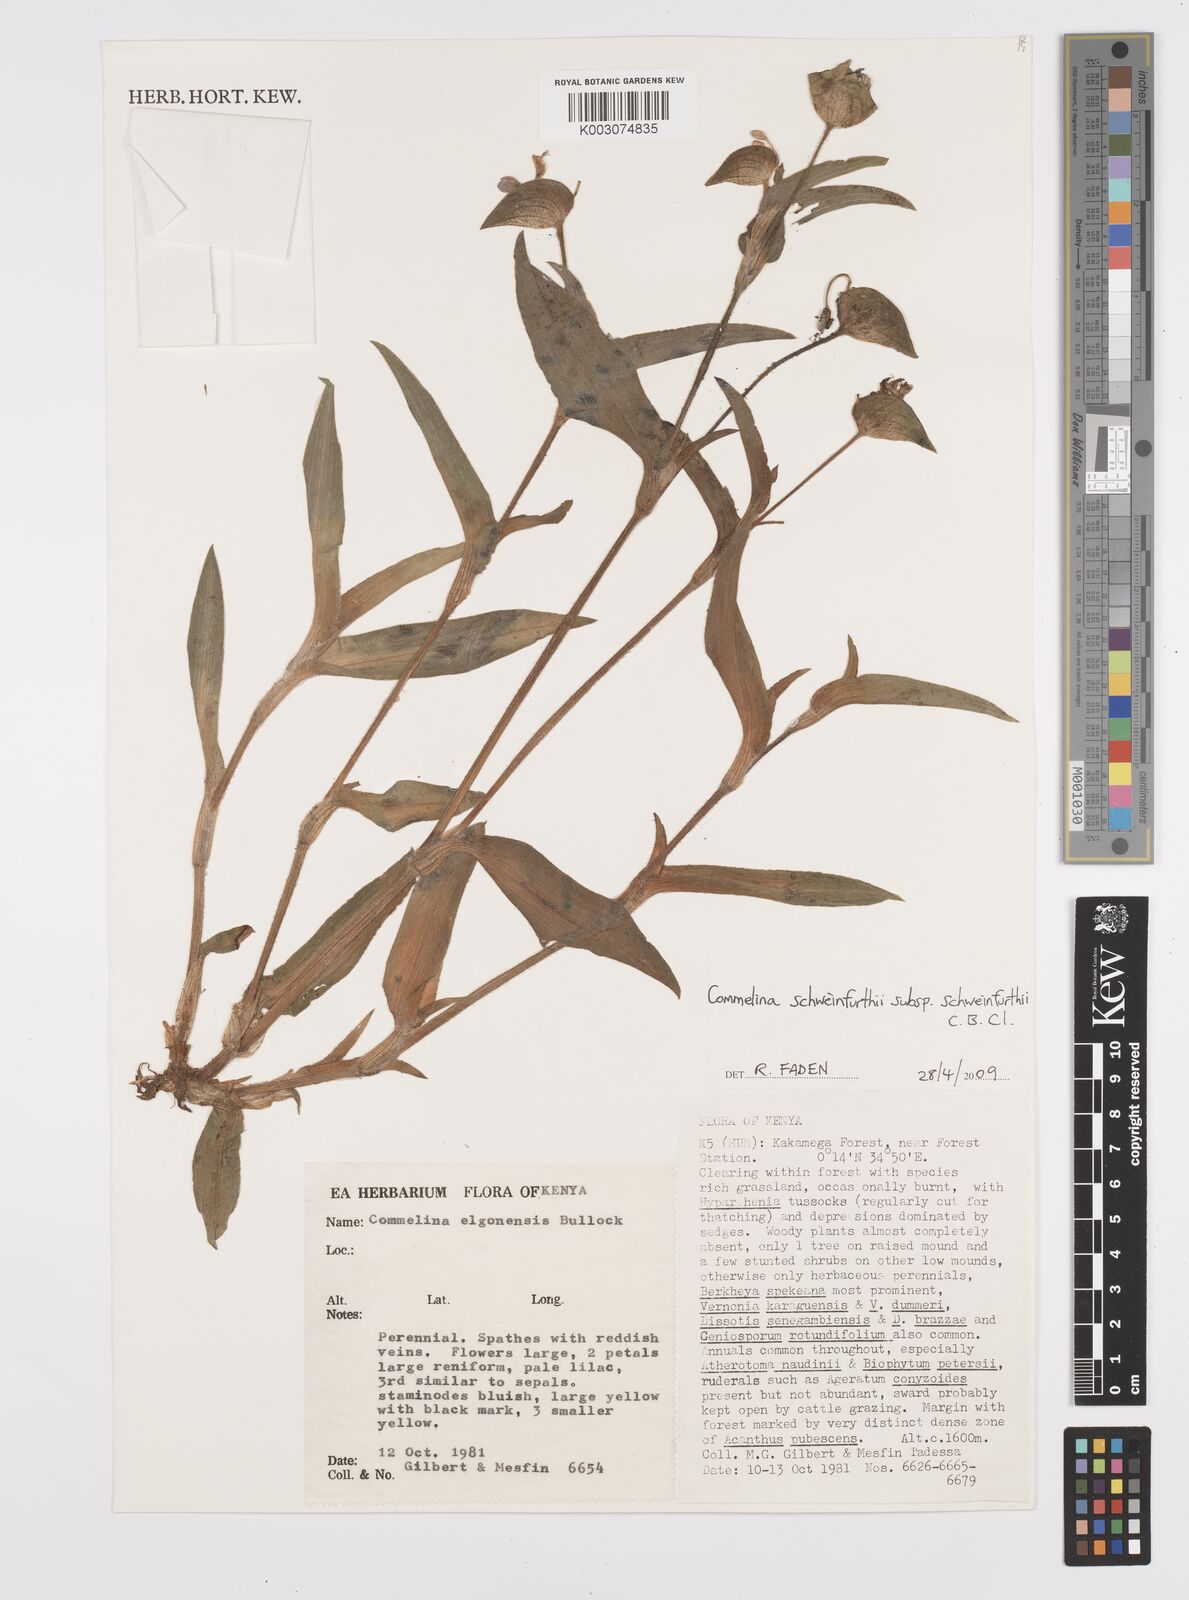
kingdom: Plantae
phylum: Tracheophyta
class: Liliopsida
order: Commelinales
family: Commelinaceae
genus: Commelina
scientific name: Commelina schweinfurthii
